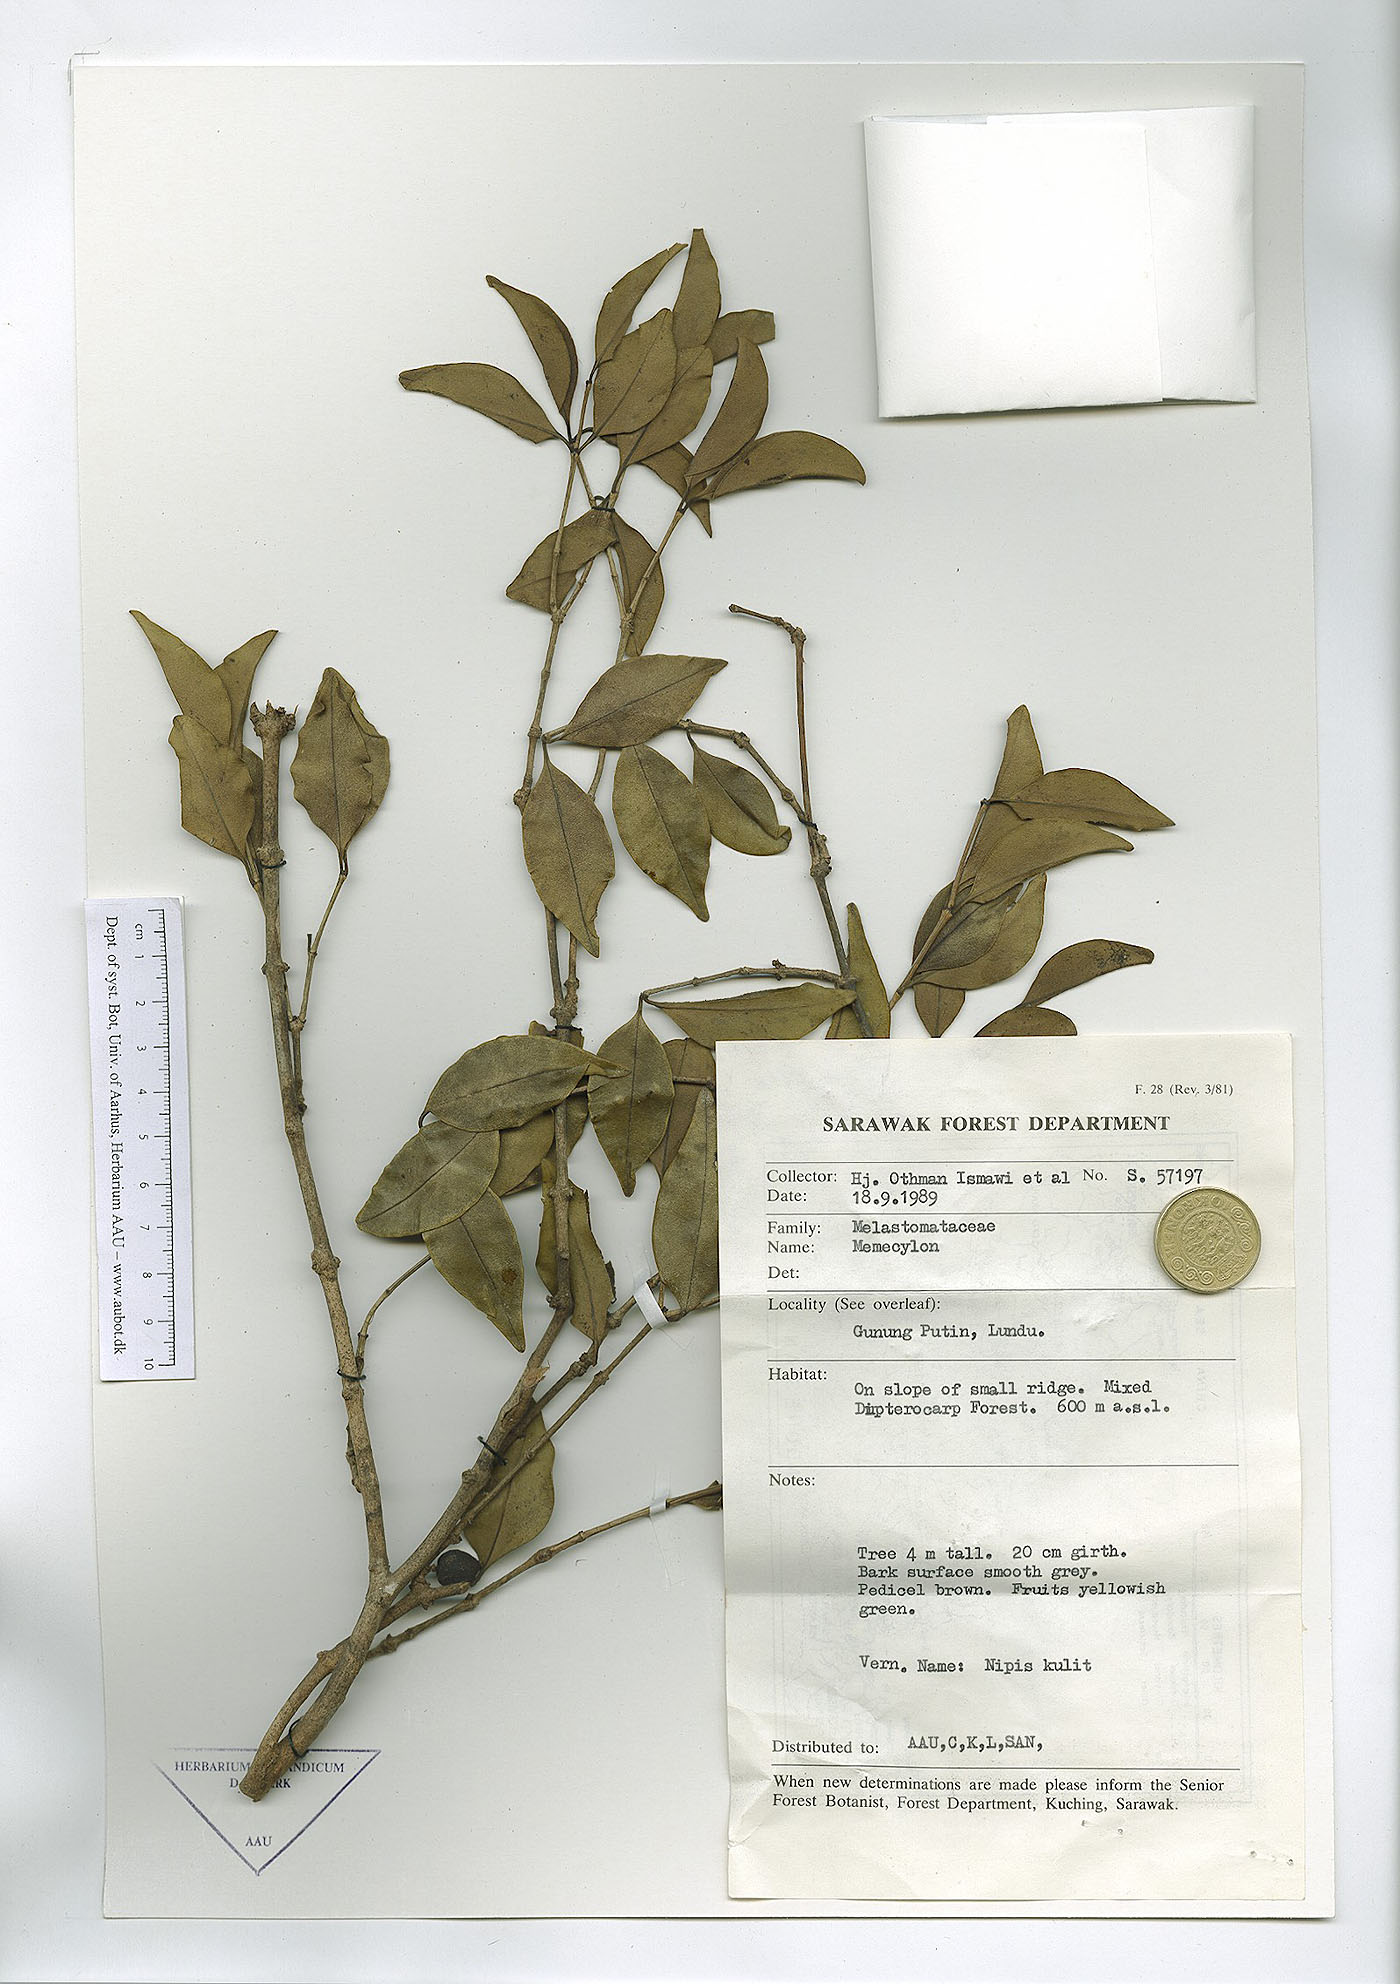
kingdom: Plantae
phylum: Tracheophyta
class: Magnoliopsida
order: Myrtales
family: Melastomataceae
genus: Memecylon
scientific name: Memecylon
